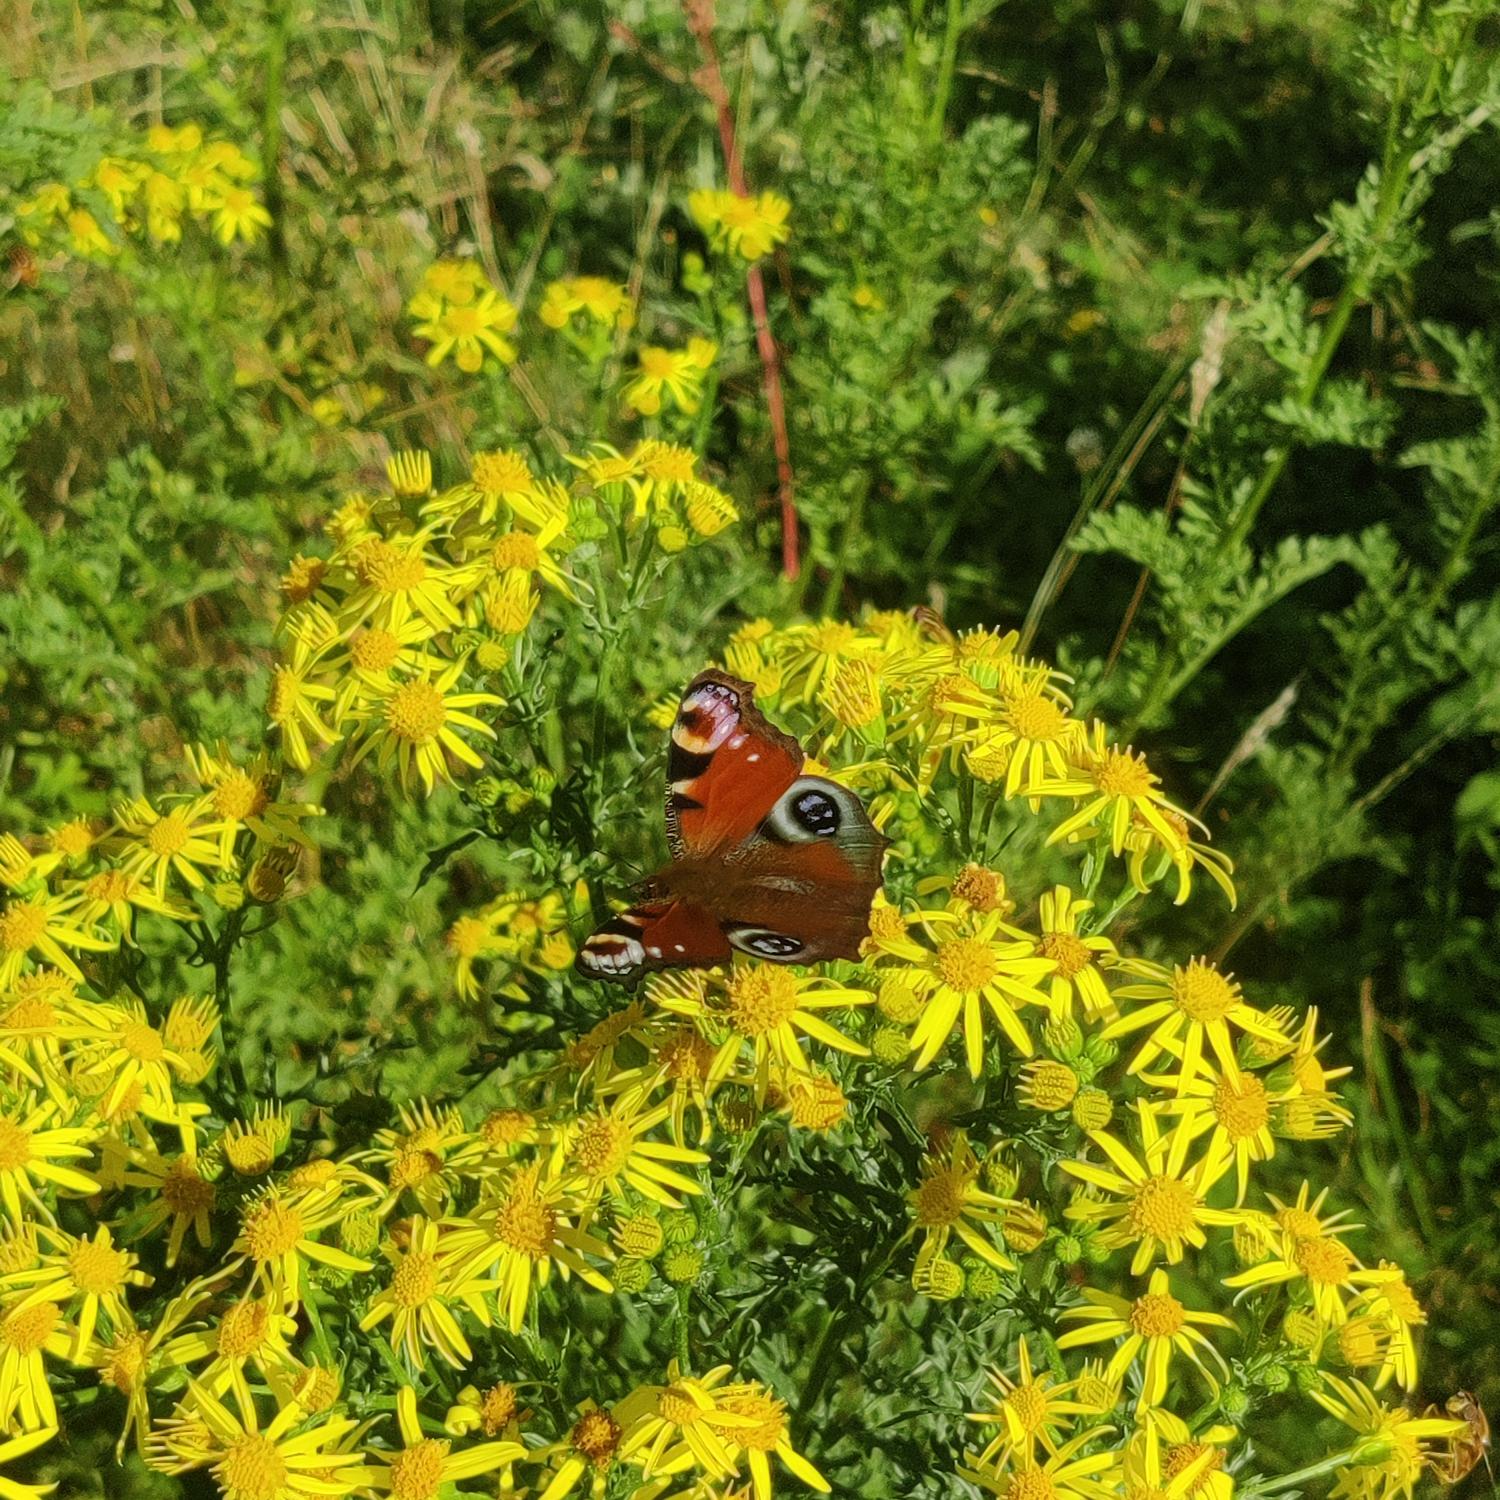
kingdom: Animalia
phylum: Arthropoda
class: Insecta
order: Lepidoptera
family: Nymphalidae
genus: Aglais
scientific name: Aglais io
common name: Dagpåfugleøje
